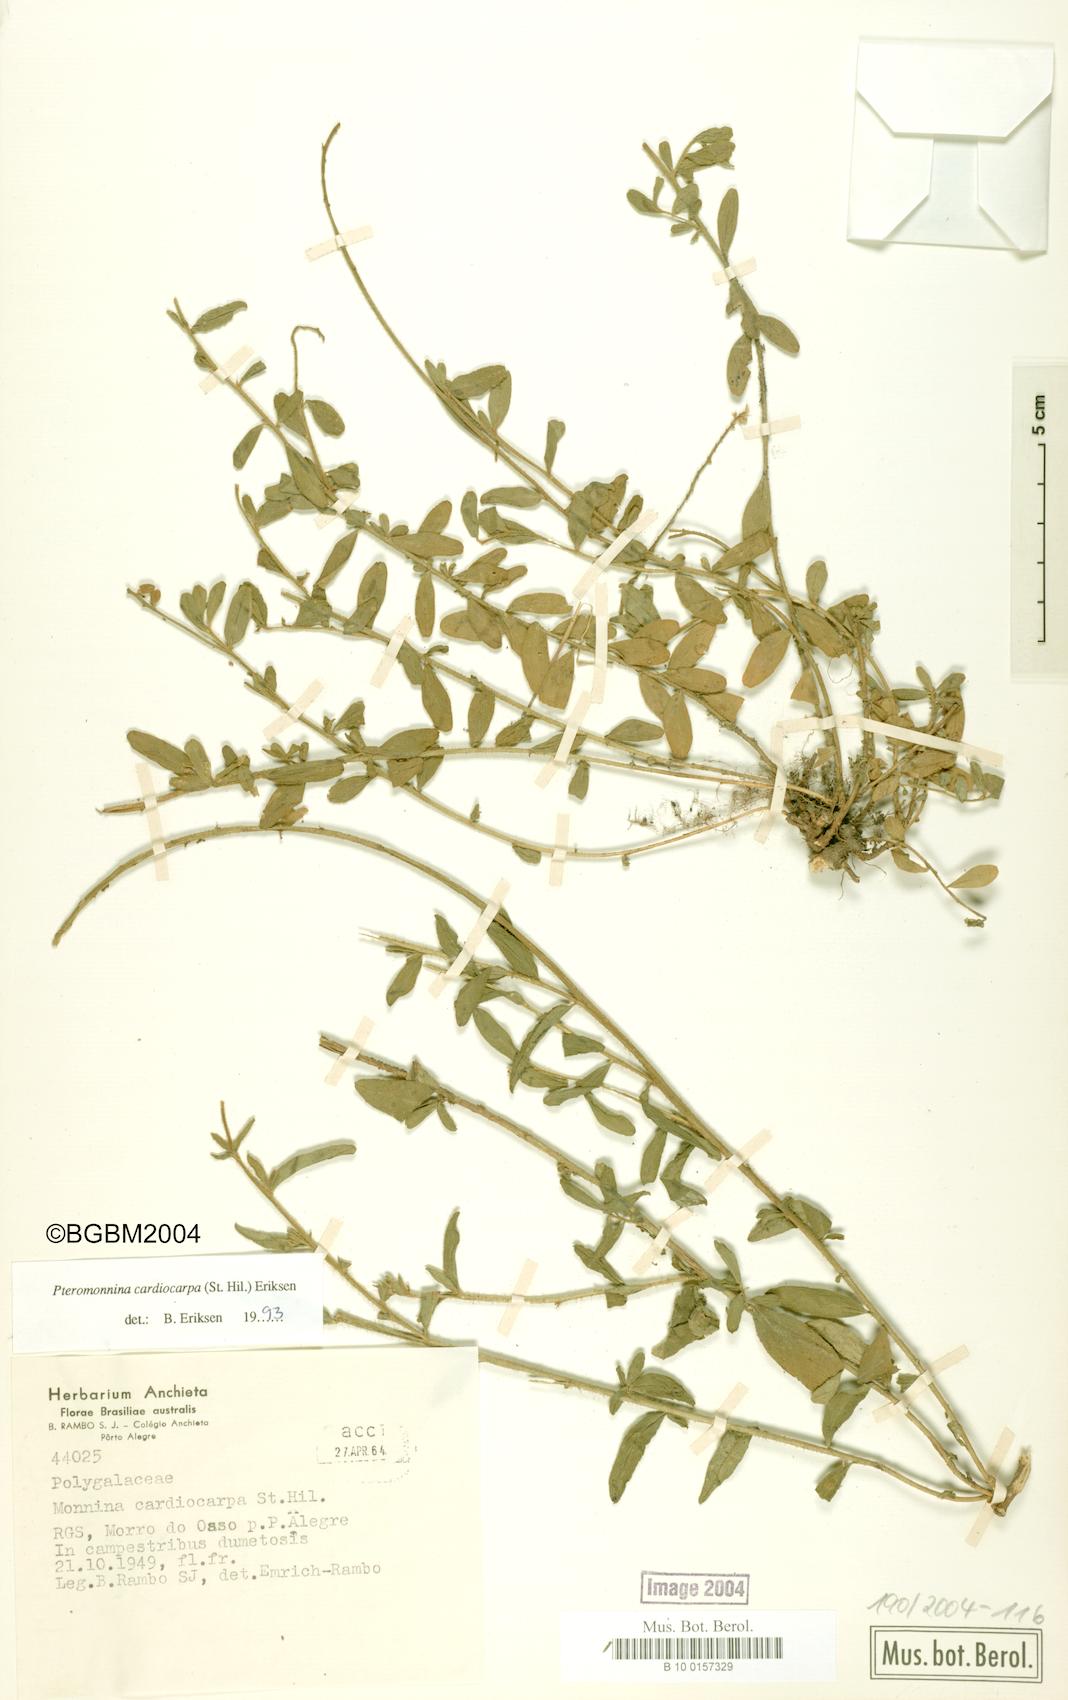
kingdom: Plantae
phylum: Tracheophyta
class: Magnoliopsida
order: Fabales
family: Polygalaceae
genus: Monnina
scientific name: Monnina cardiocarpa
